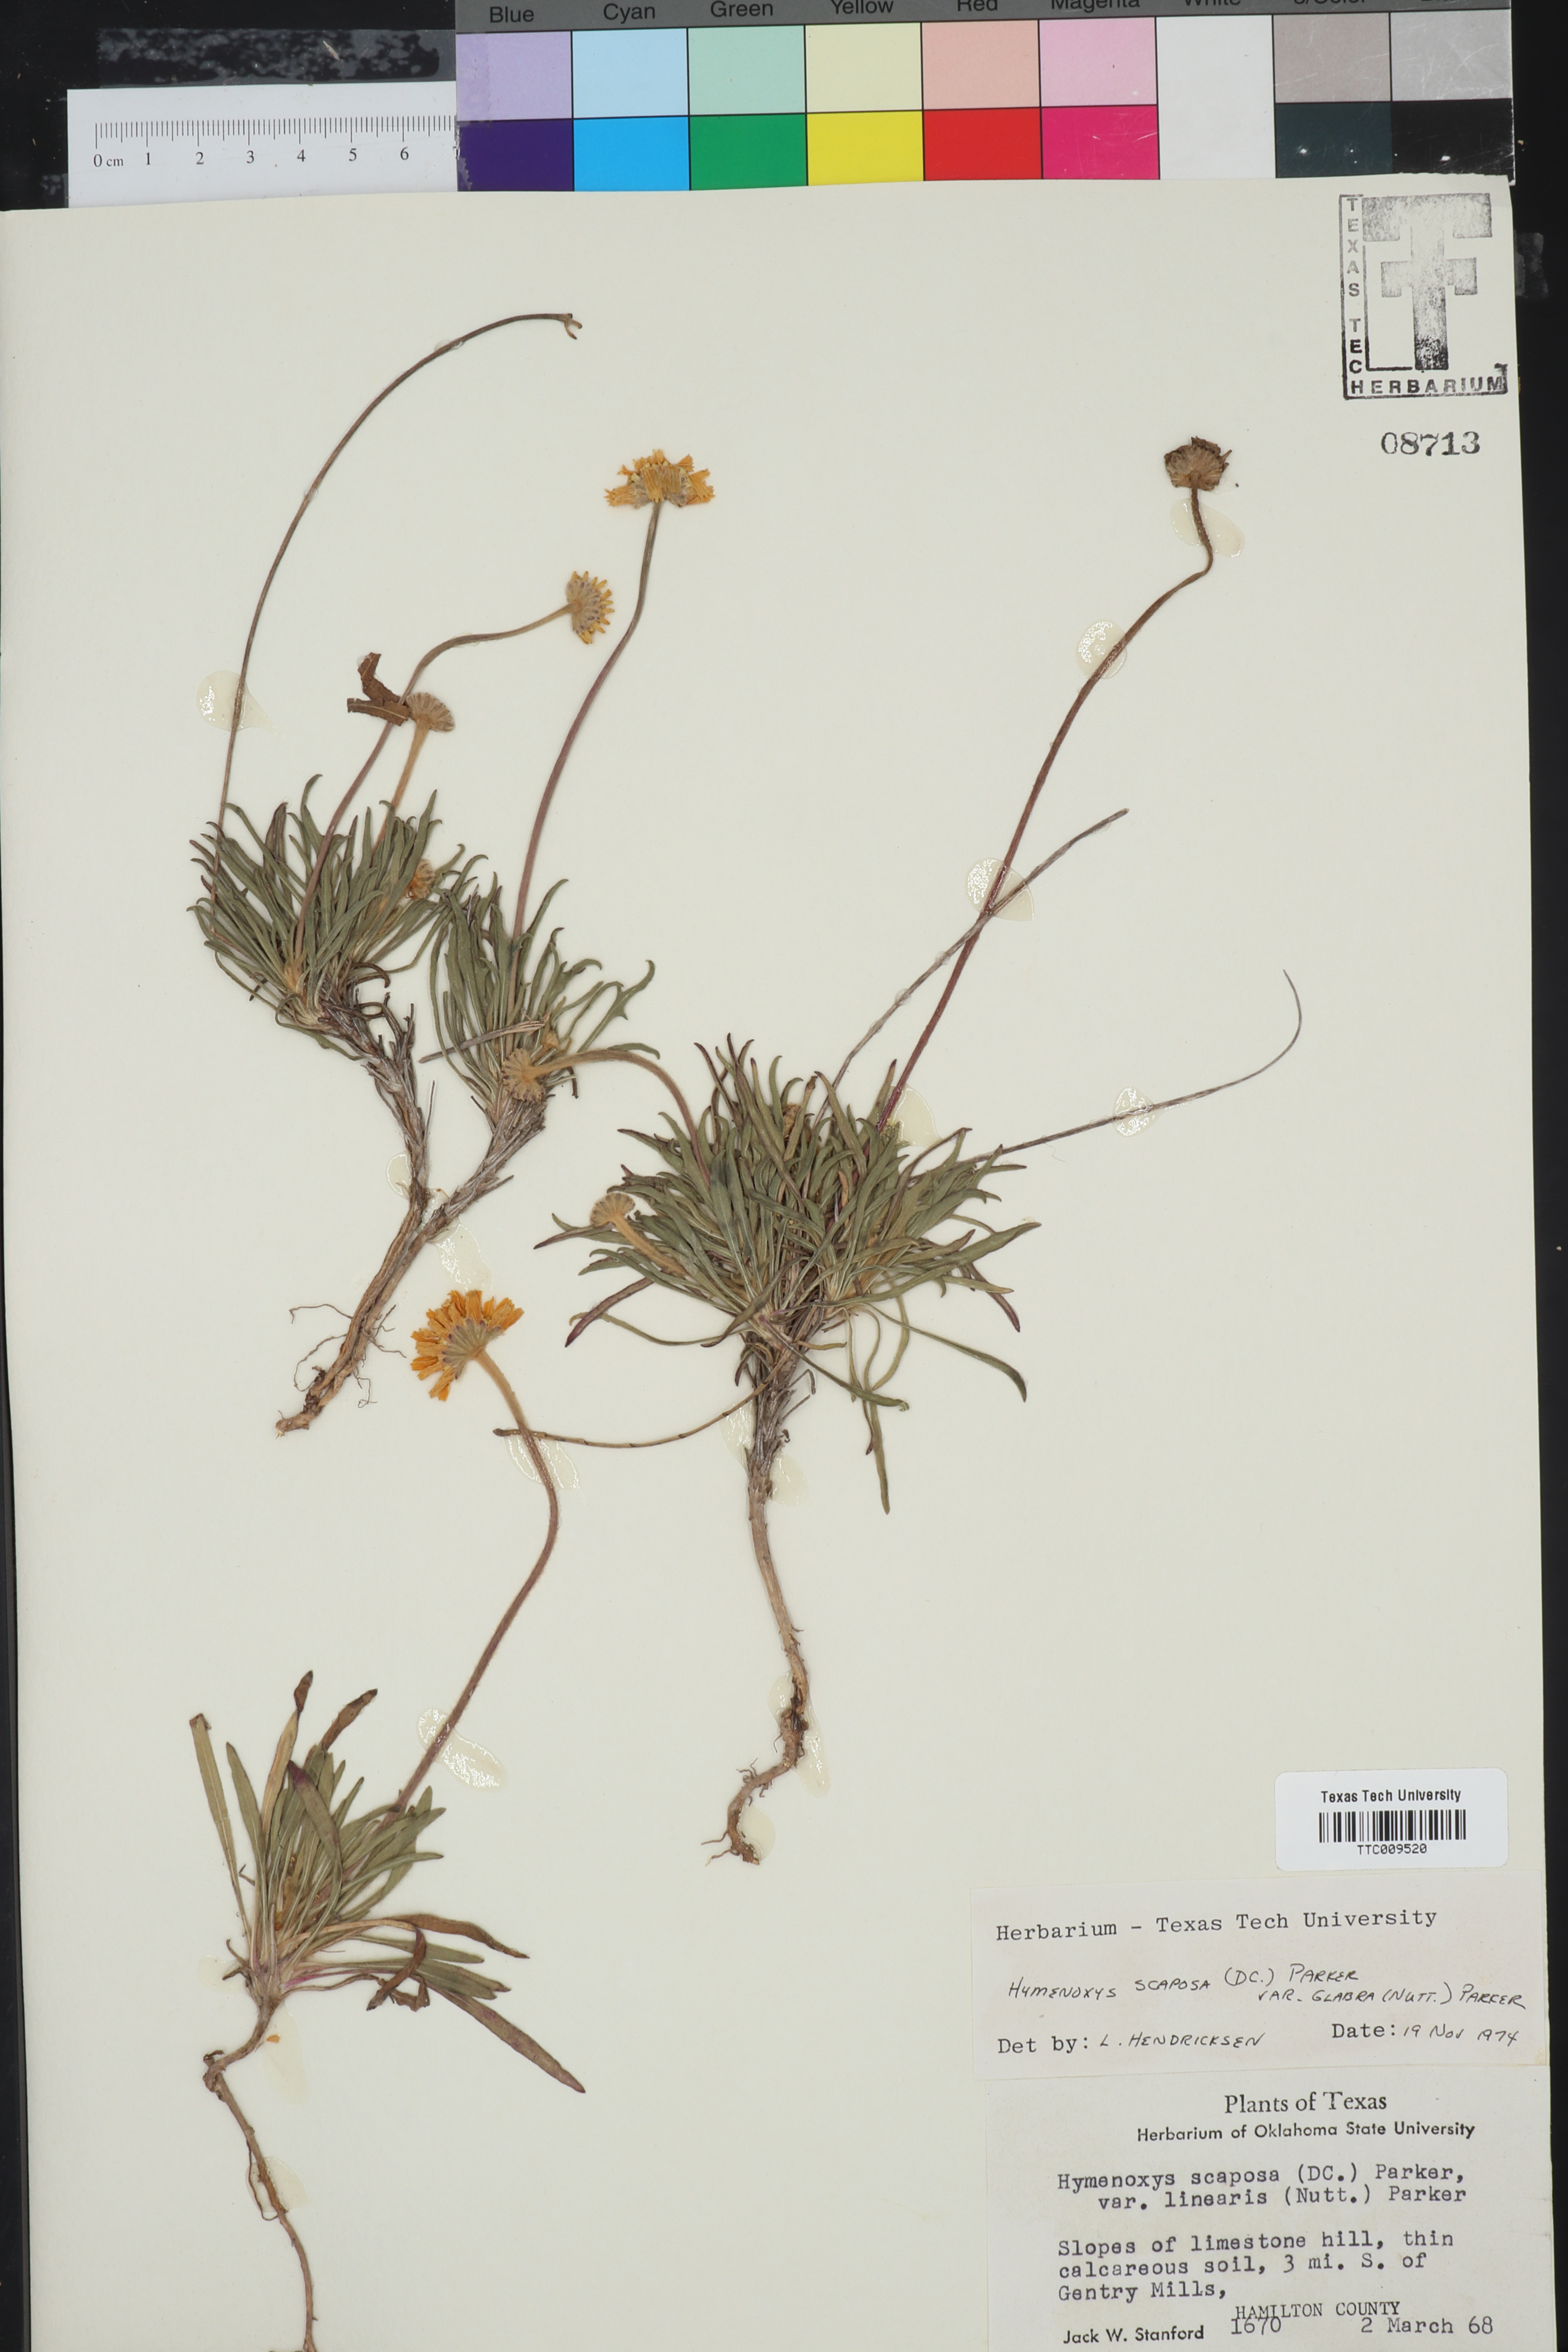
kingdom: Plantae
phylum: Tracheophyta
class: Magnoliopsida
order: Asterales
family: Asteraceae
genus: Tetraneuris
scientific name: Tetraneuris scaposa
